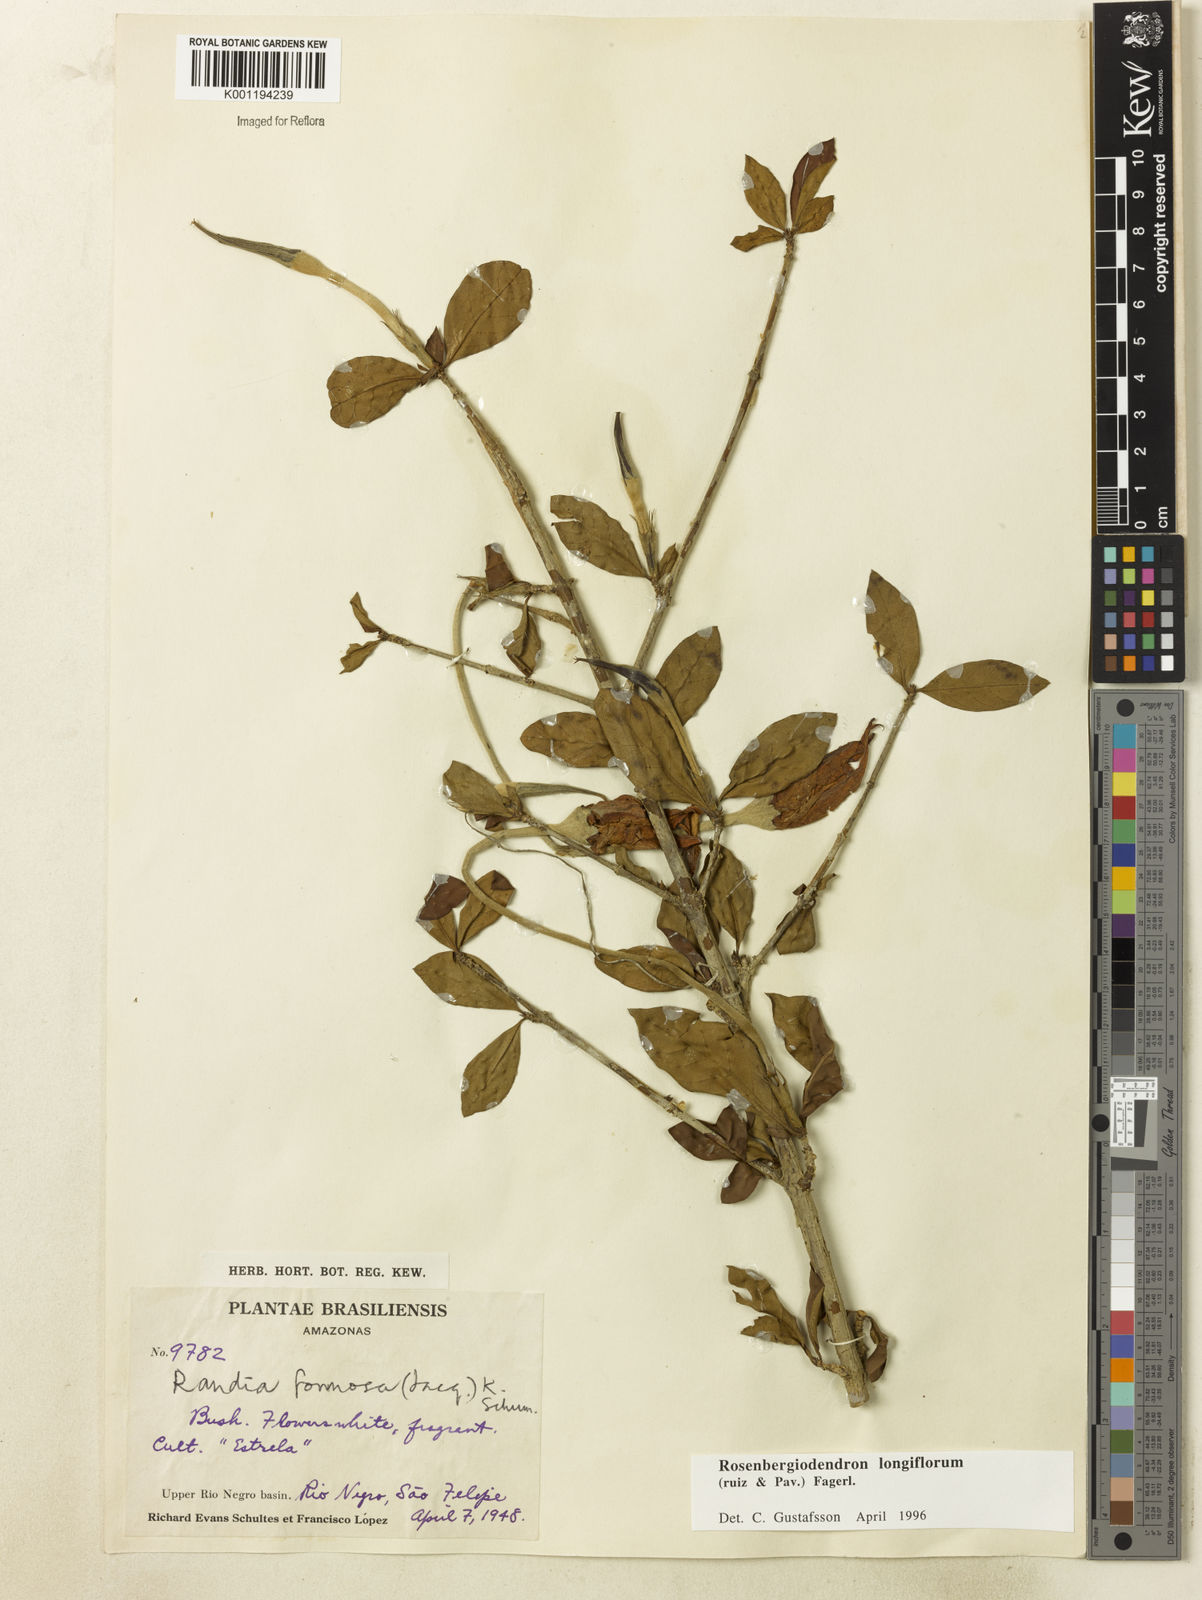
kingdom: Plantae
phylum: Tracheophyta
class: Magnoliopsida
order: Gentianales
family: Rubiaceae
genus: Rosenbergiodendron
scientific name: Rosenbergiodendron longiflorum
